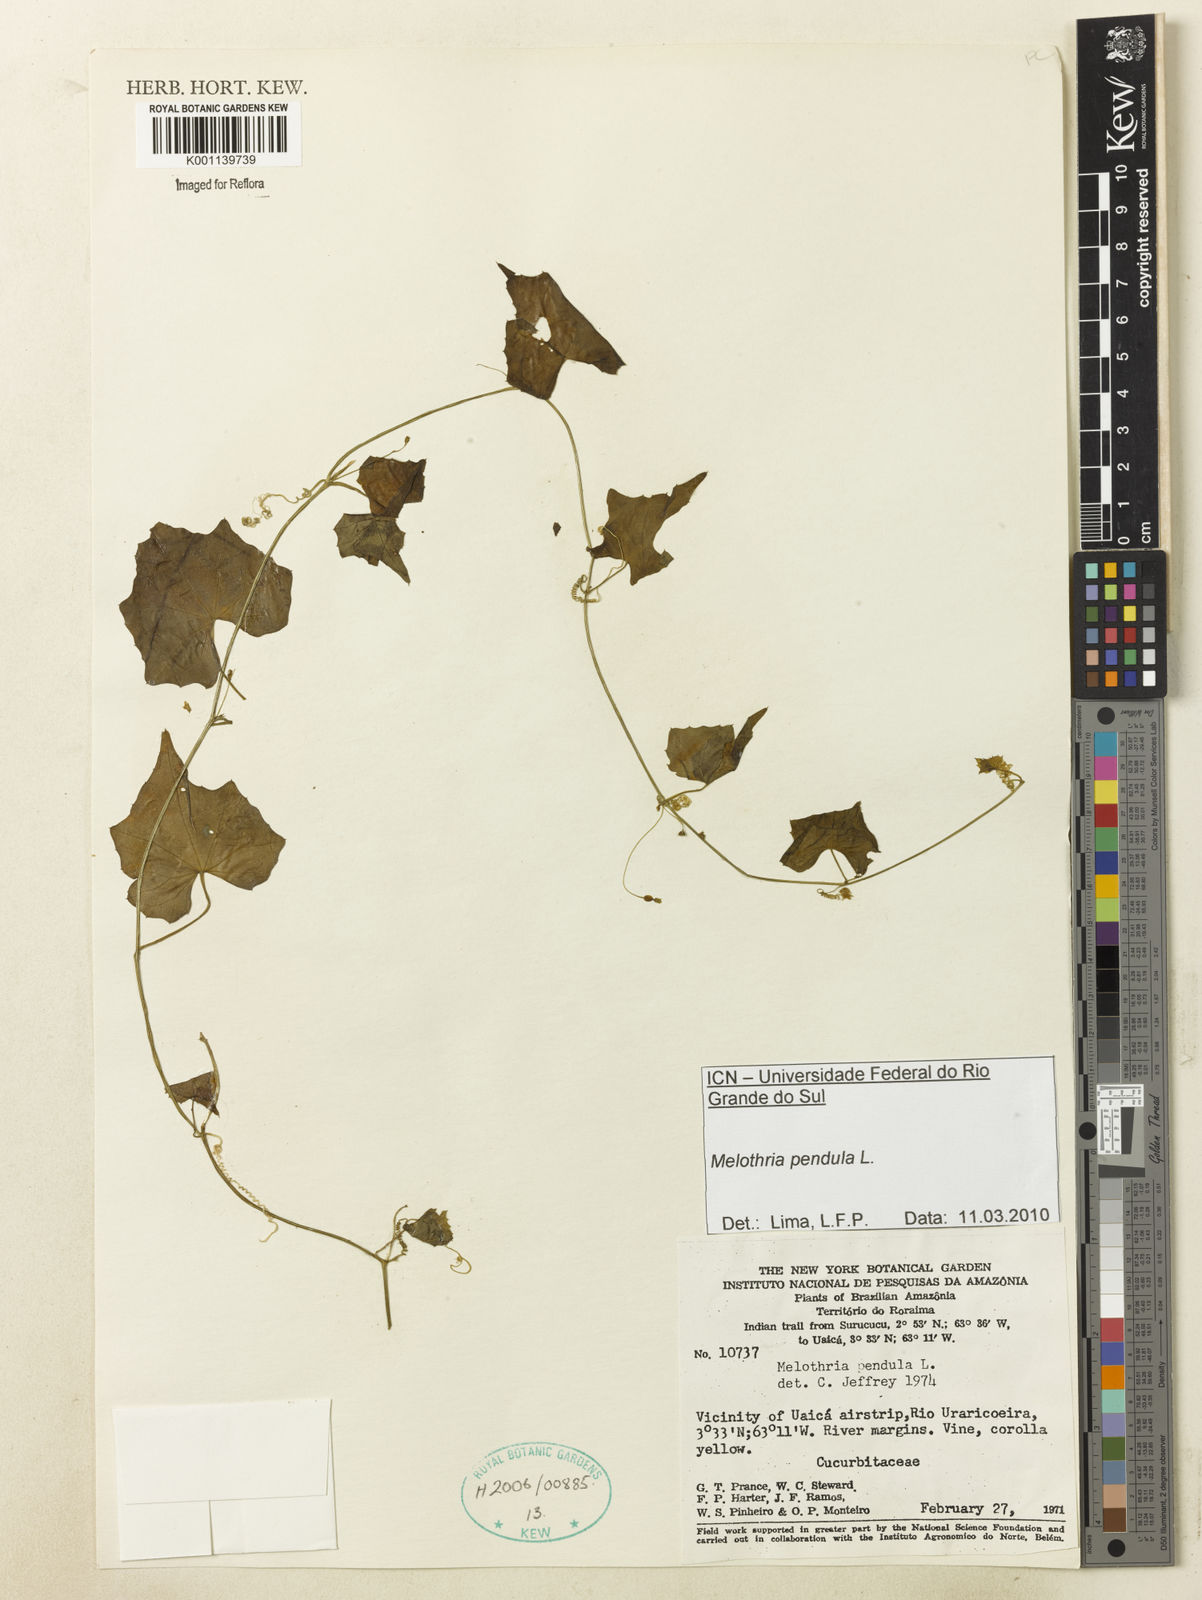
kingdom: Plantae
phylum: Tracheophyta
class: Magnoliopsida
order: Cucurbitales
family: Cucurbitaceae
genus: Melothria
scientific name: Melothria pendula
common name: Creeping-cucumber
